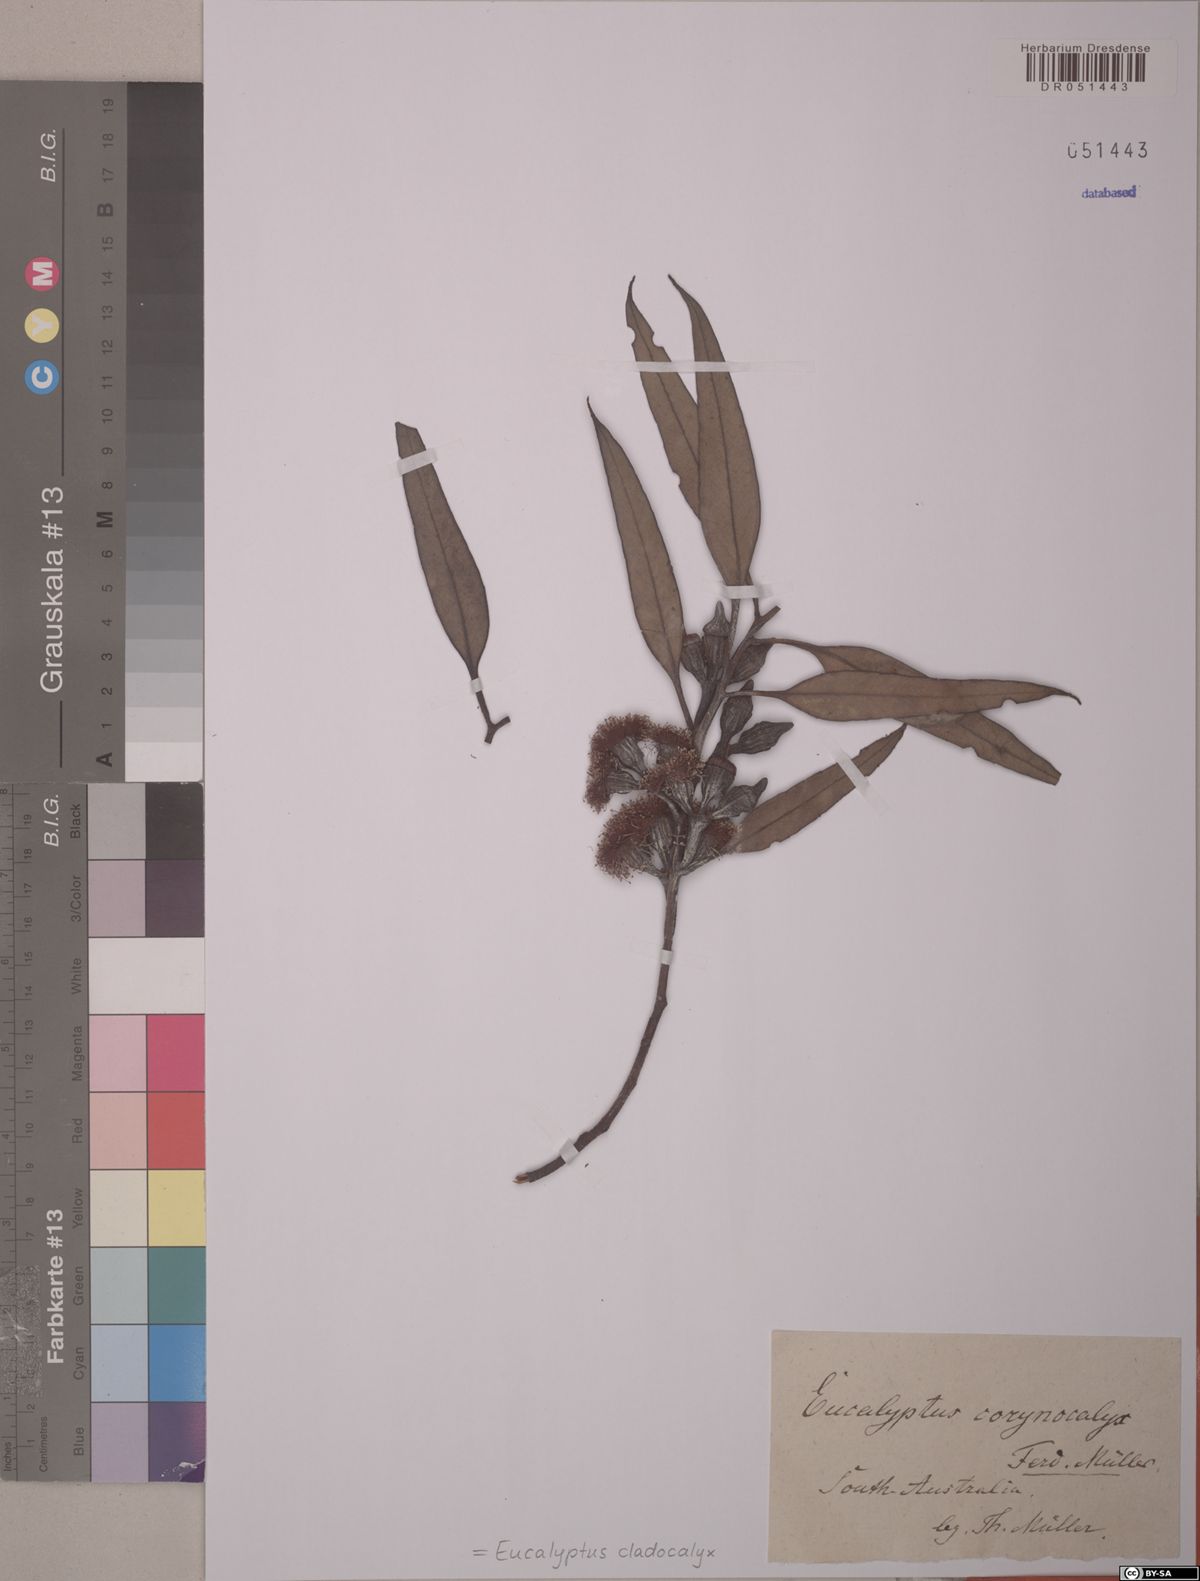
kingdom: Plantae
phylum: Tracheophyta
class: Magnoliopsida
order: Myrtales
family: Myrtaceae
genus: Eucalyptus
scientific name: Eucalyptus cladocalyx
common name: Sugargum
